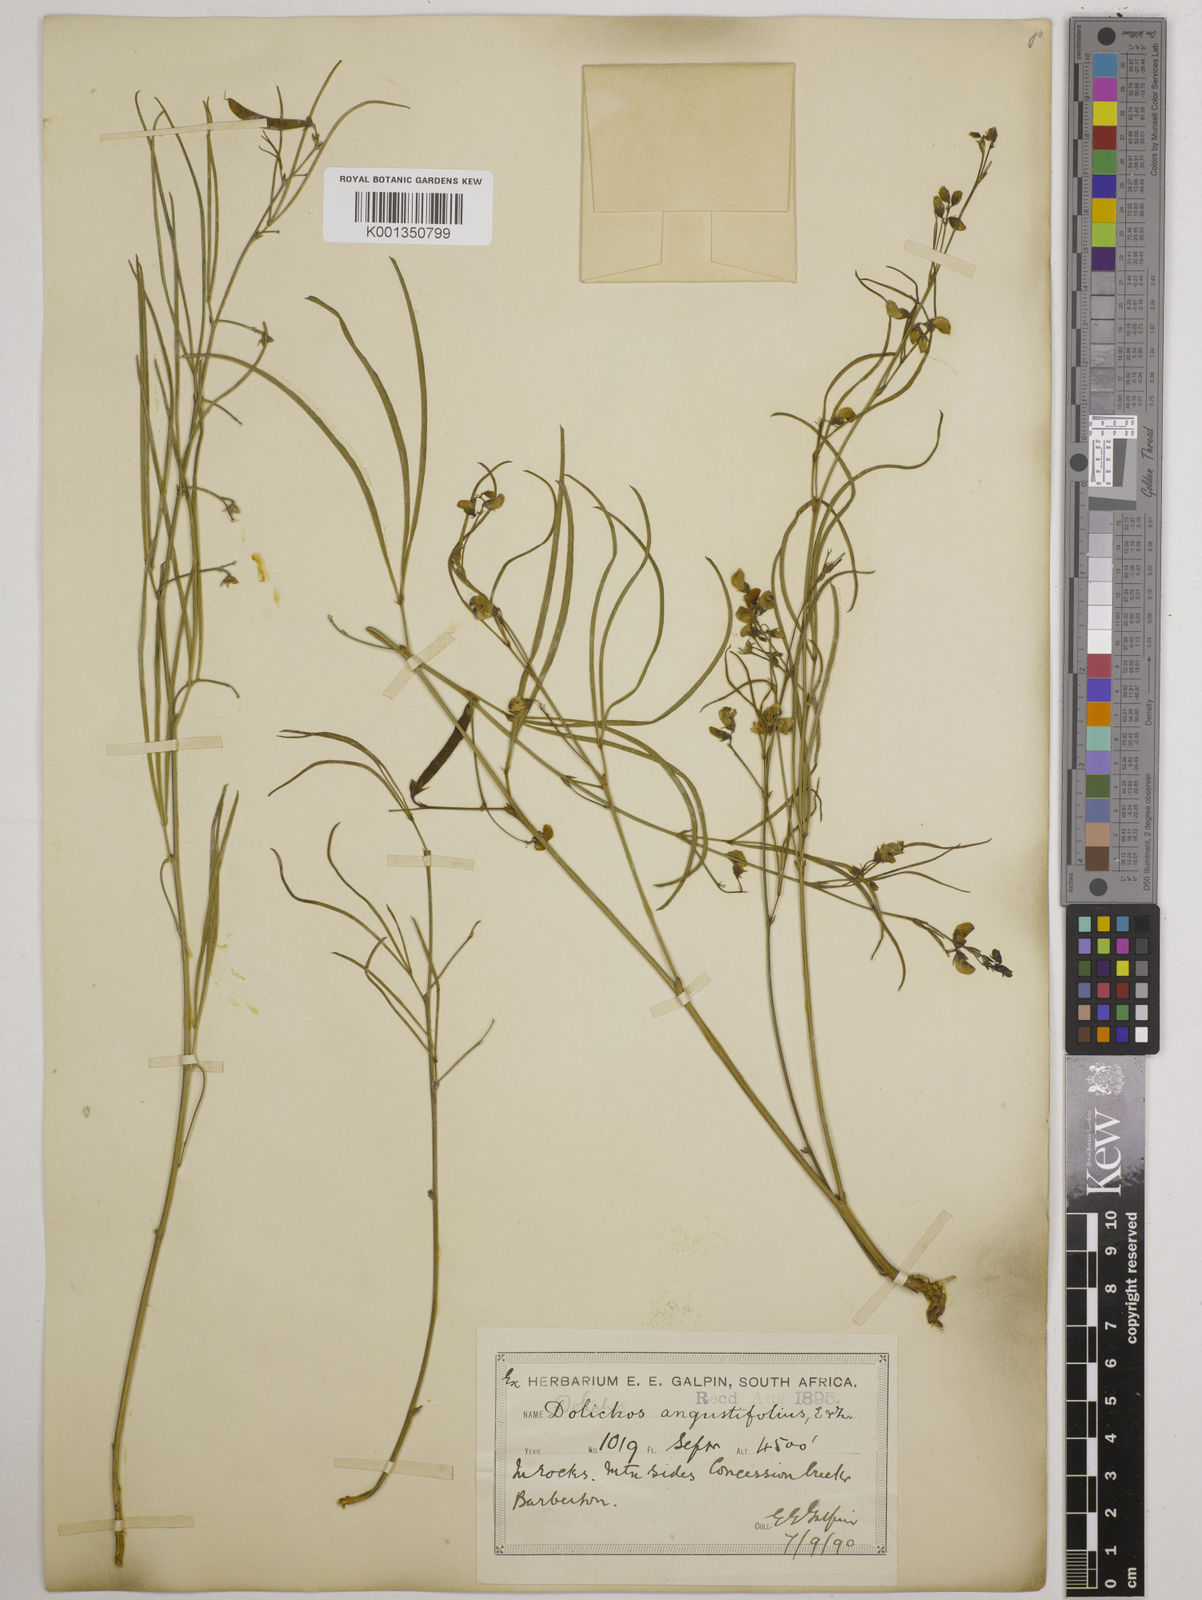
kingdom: Plantae
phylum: Tracheophyta
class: Magnoliopsida
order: Fabales
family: Fabaceae
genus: Dolichos
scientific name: Dolichos
